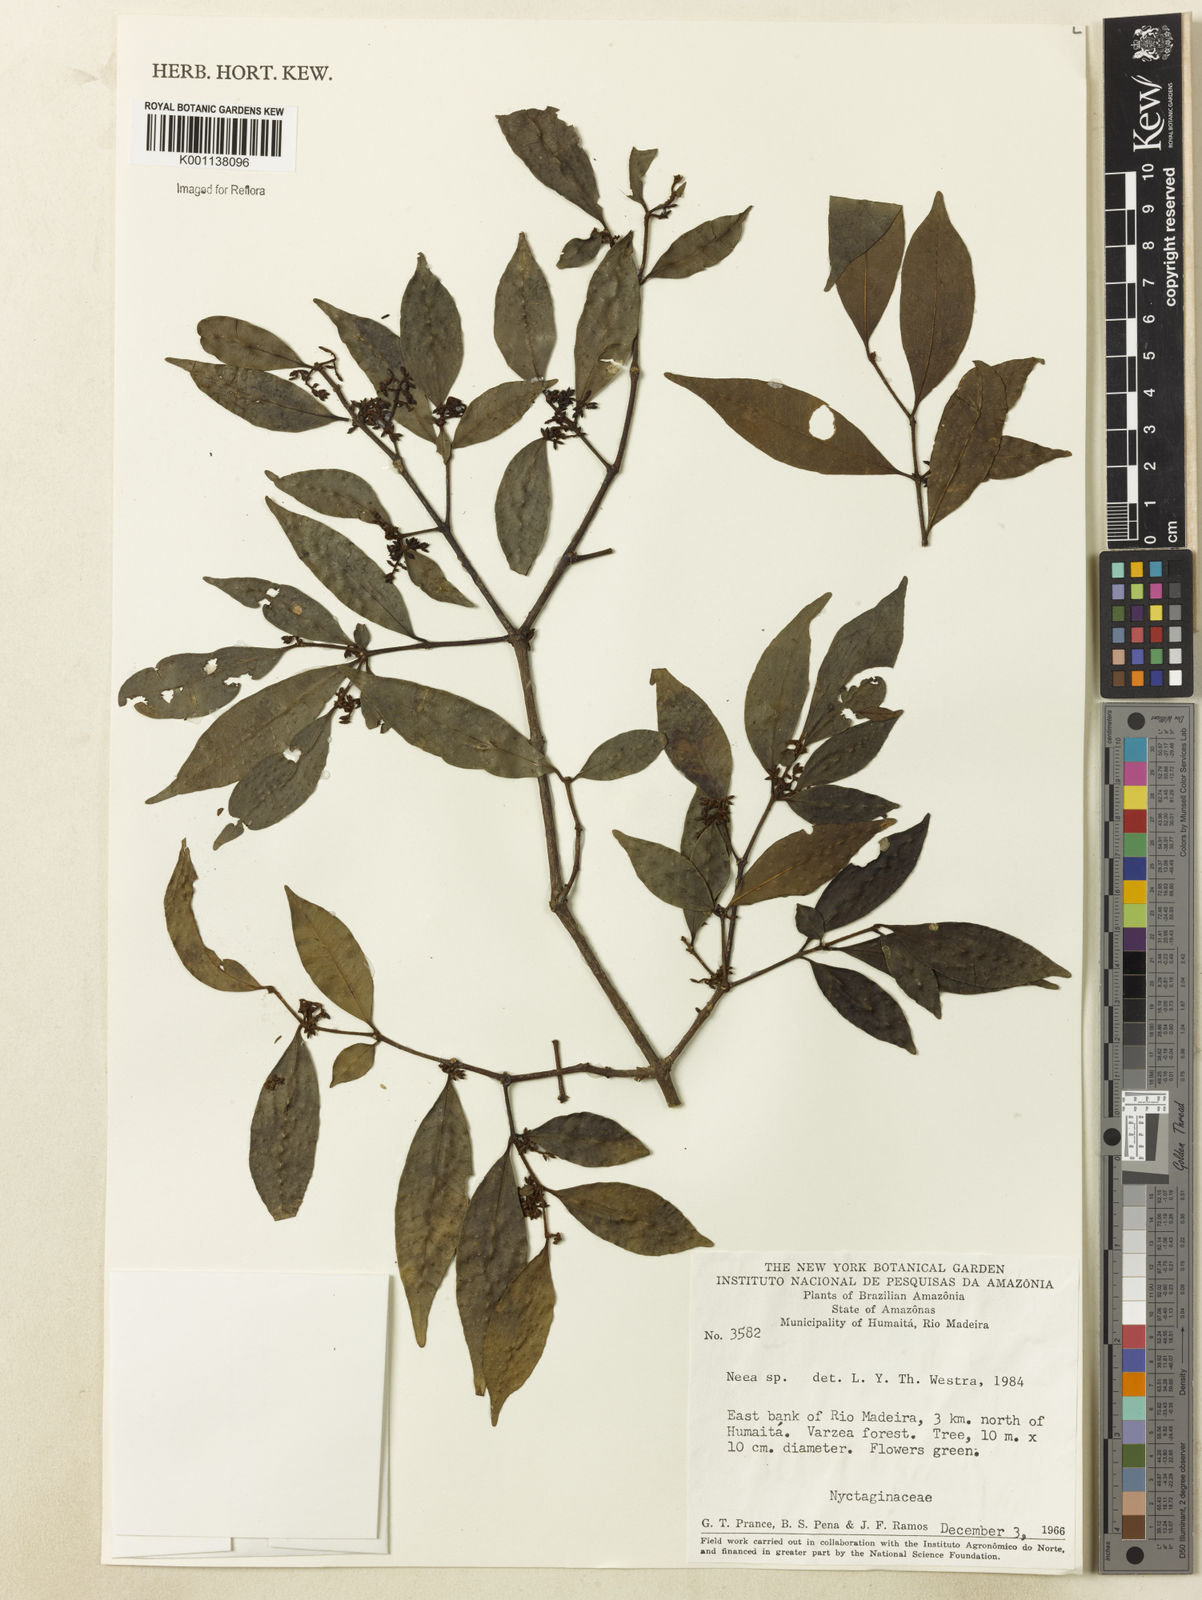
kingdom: Plantae
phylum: Tracheophyta
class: Magnoliopsida
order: Caryophyllales
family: Nyctaginaceae
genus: Neea
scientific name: Neea
